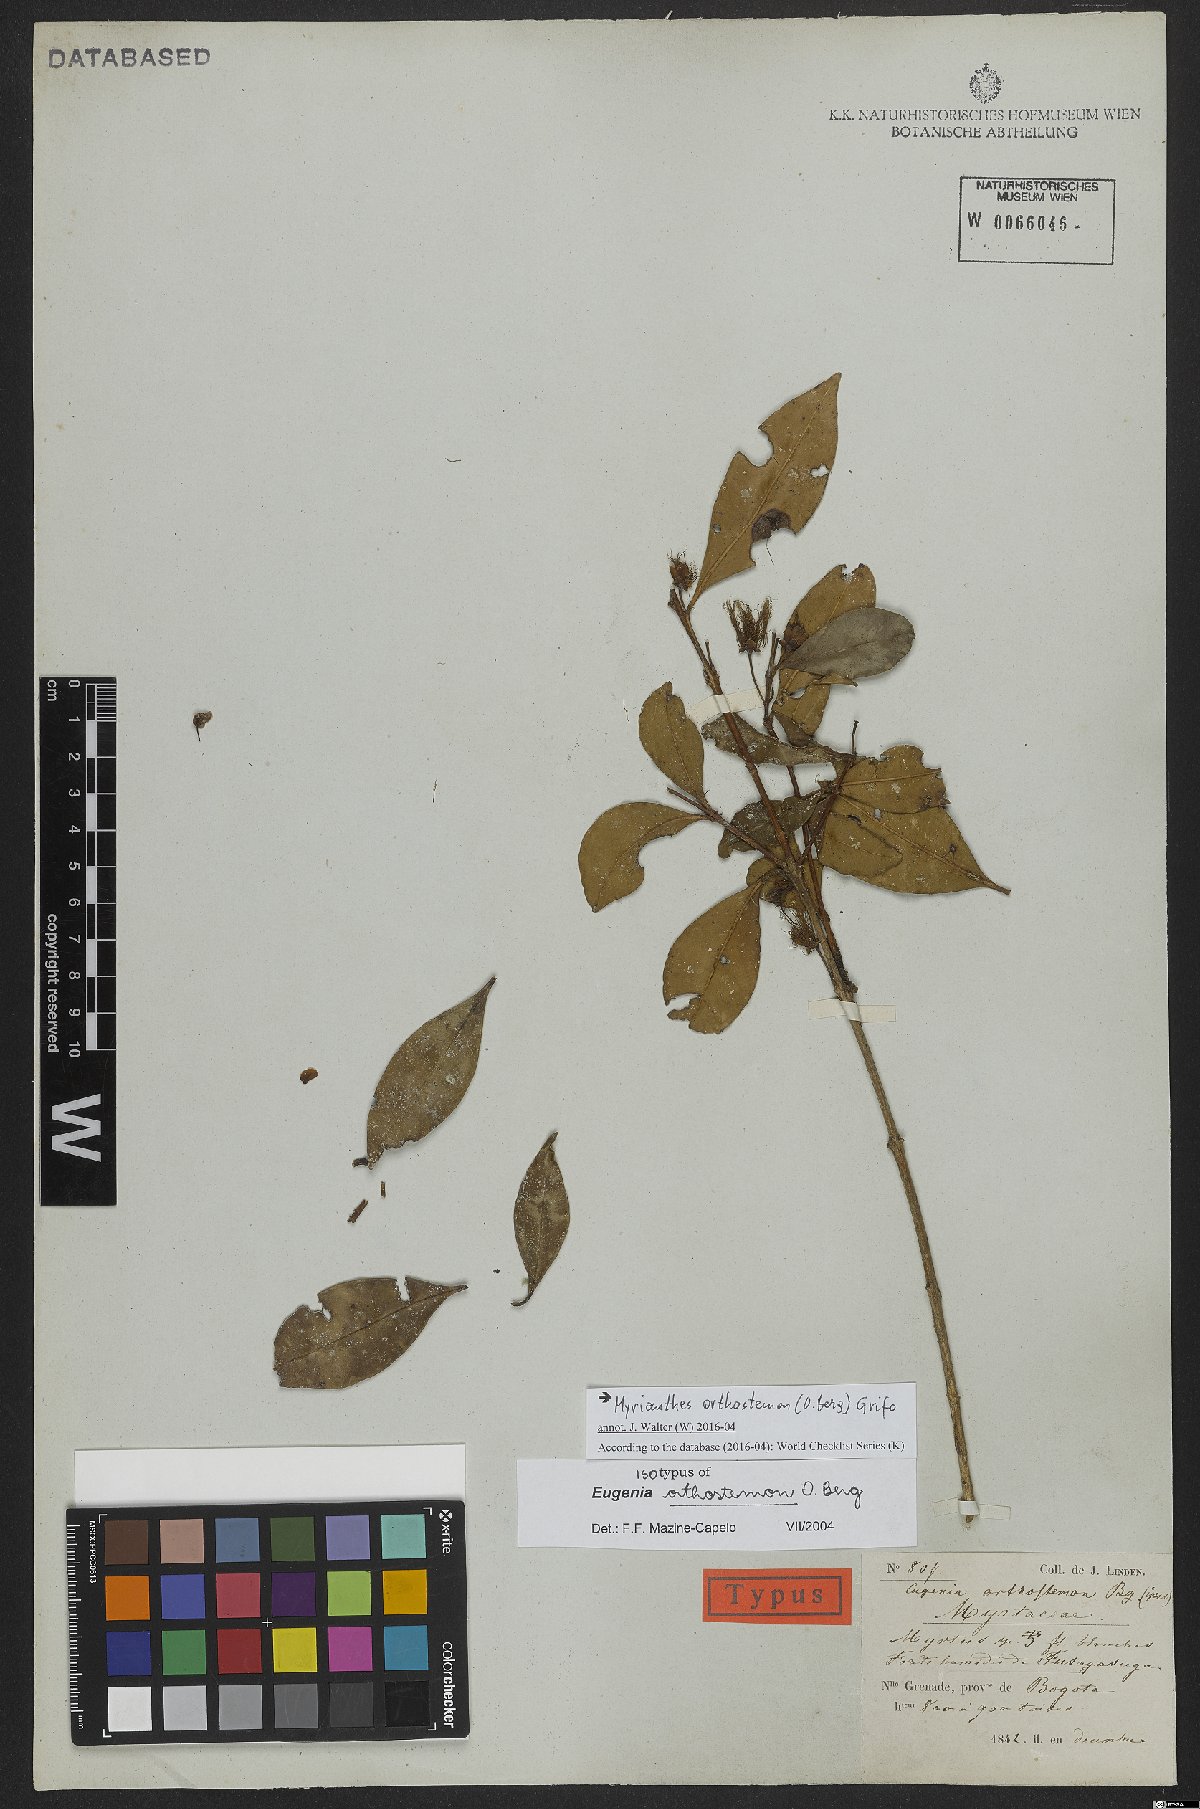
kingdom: Plantae
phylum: Tracheophyta
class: Magnoliopsida
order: Myrtales
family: Myrtaceae
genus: Myrcianthes
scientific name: Myrcianthes orthostemon
